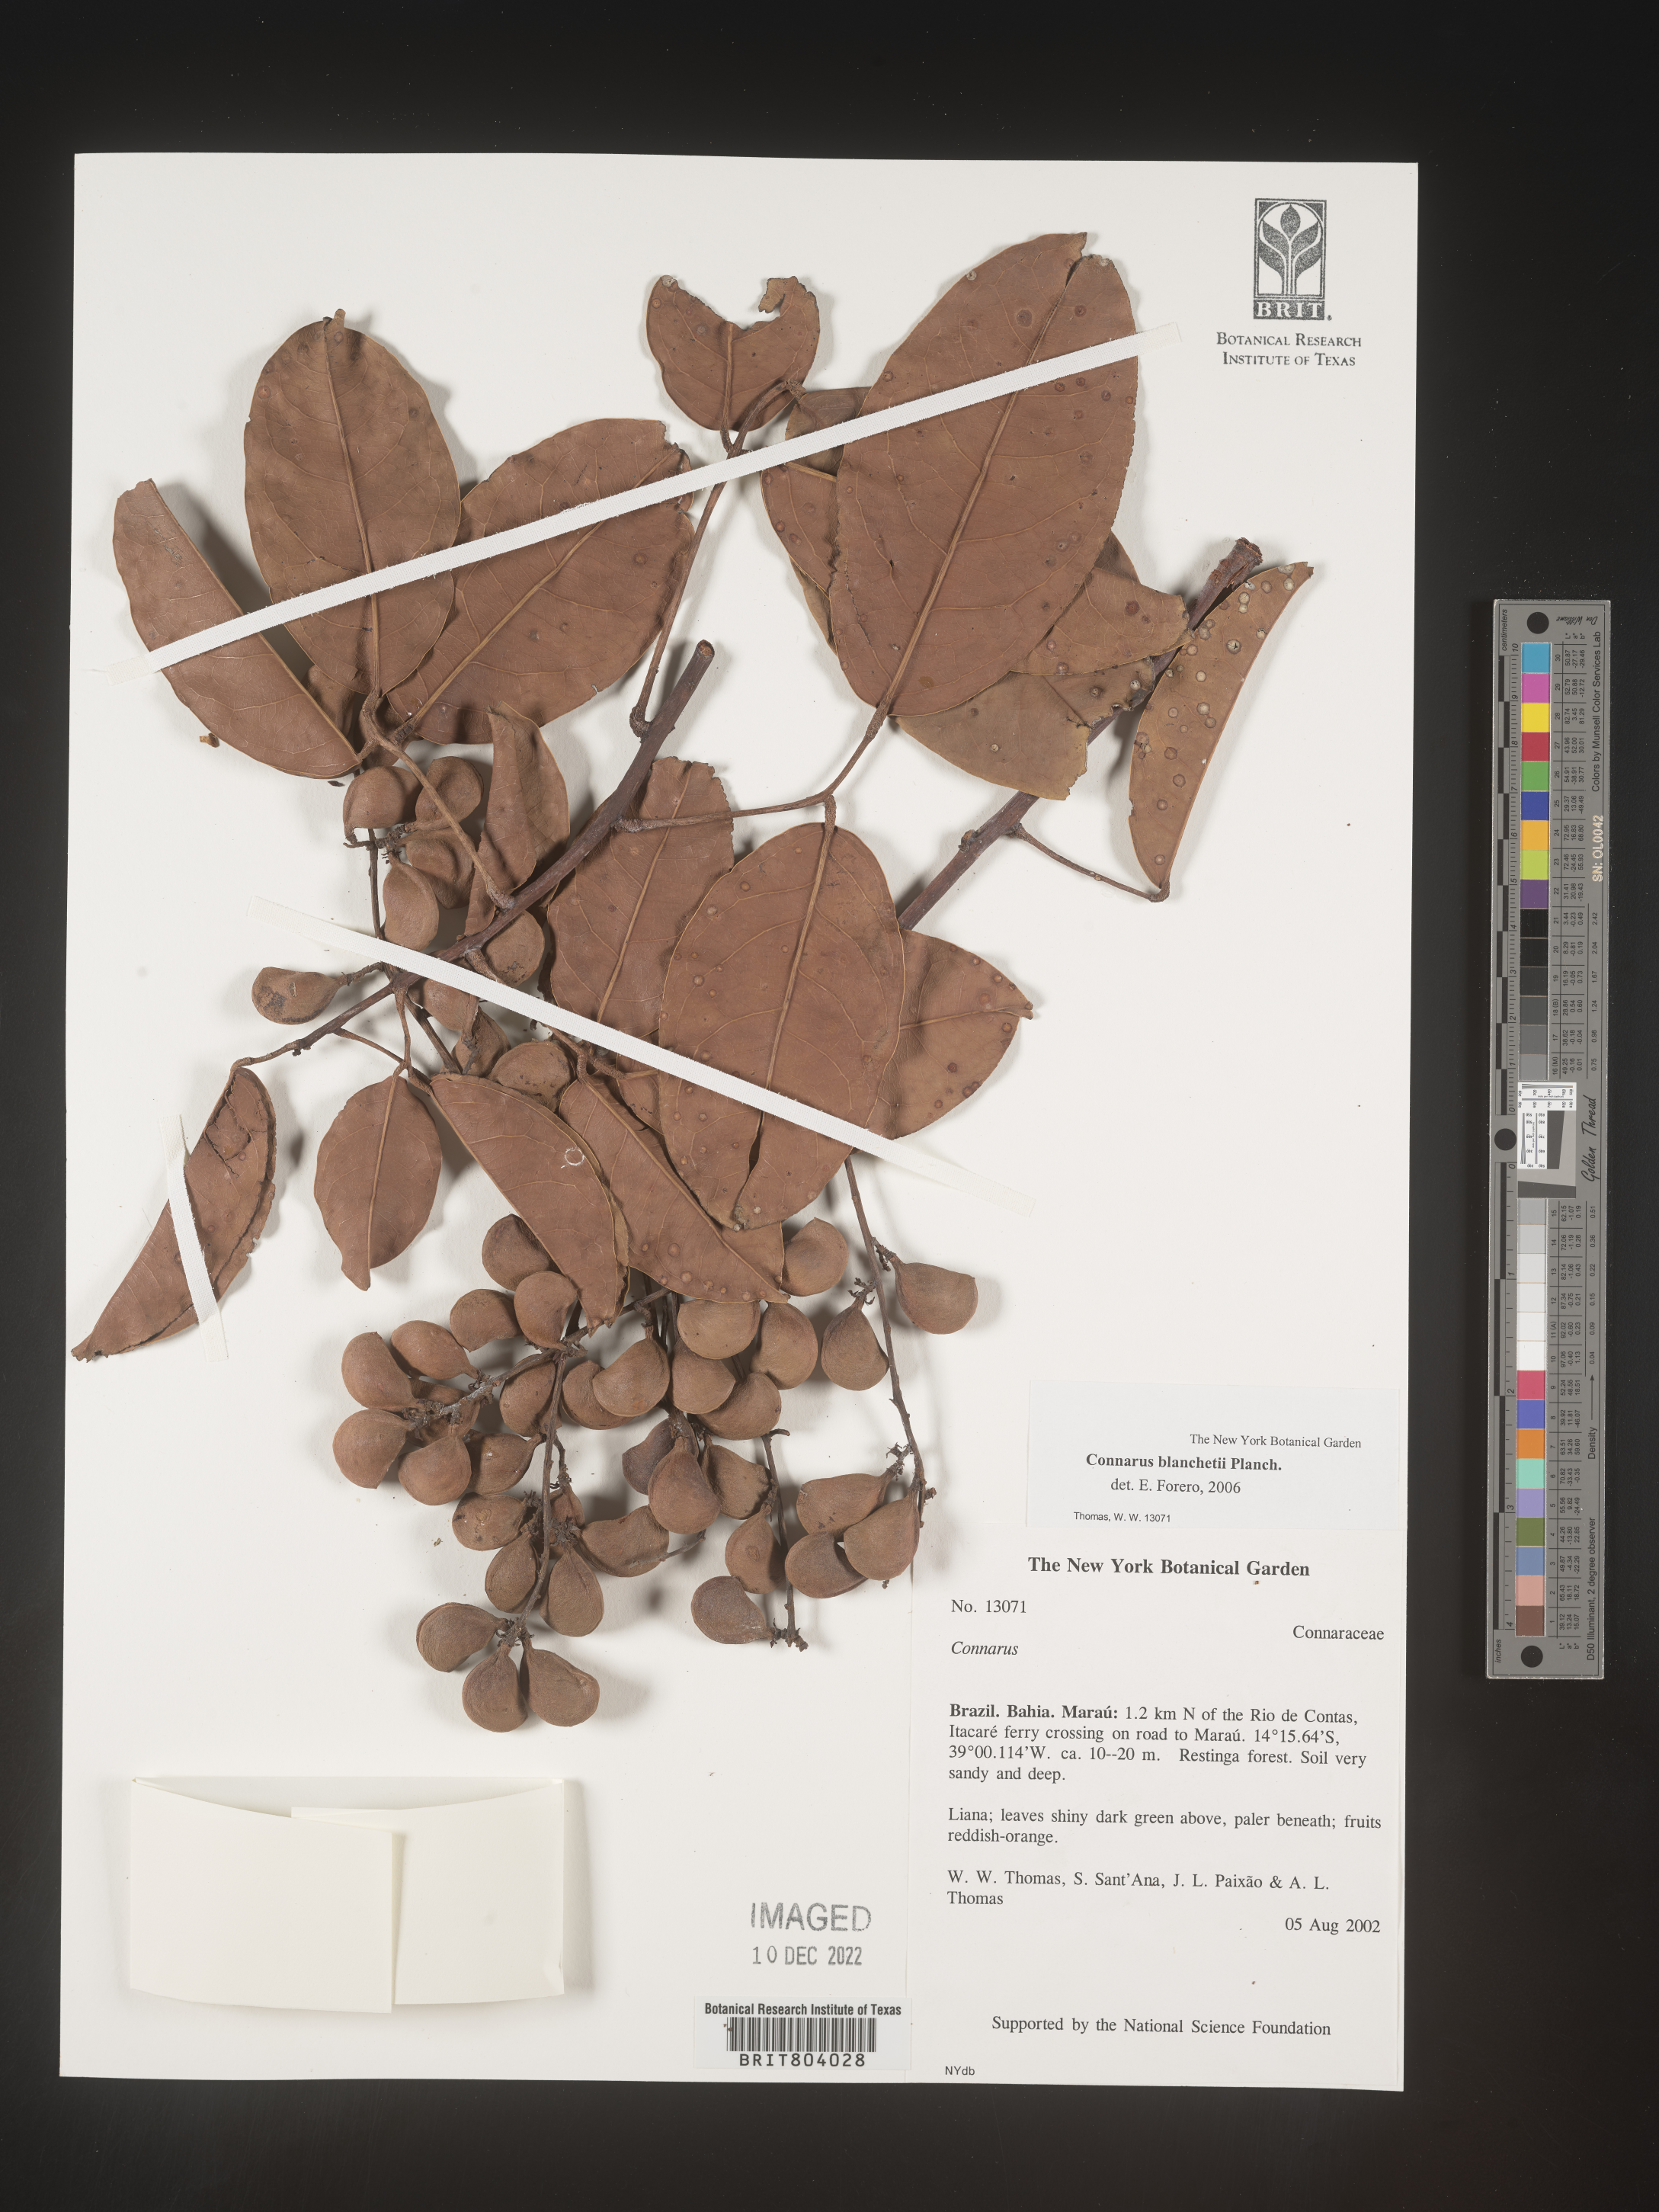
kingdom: Plantae
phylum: Tracheophyta
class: Magnoliopsida
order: Oxalidales
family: Connaraceae
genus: Connarus
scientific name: Connarus
